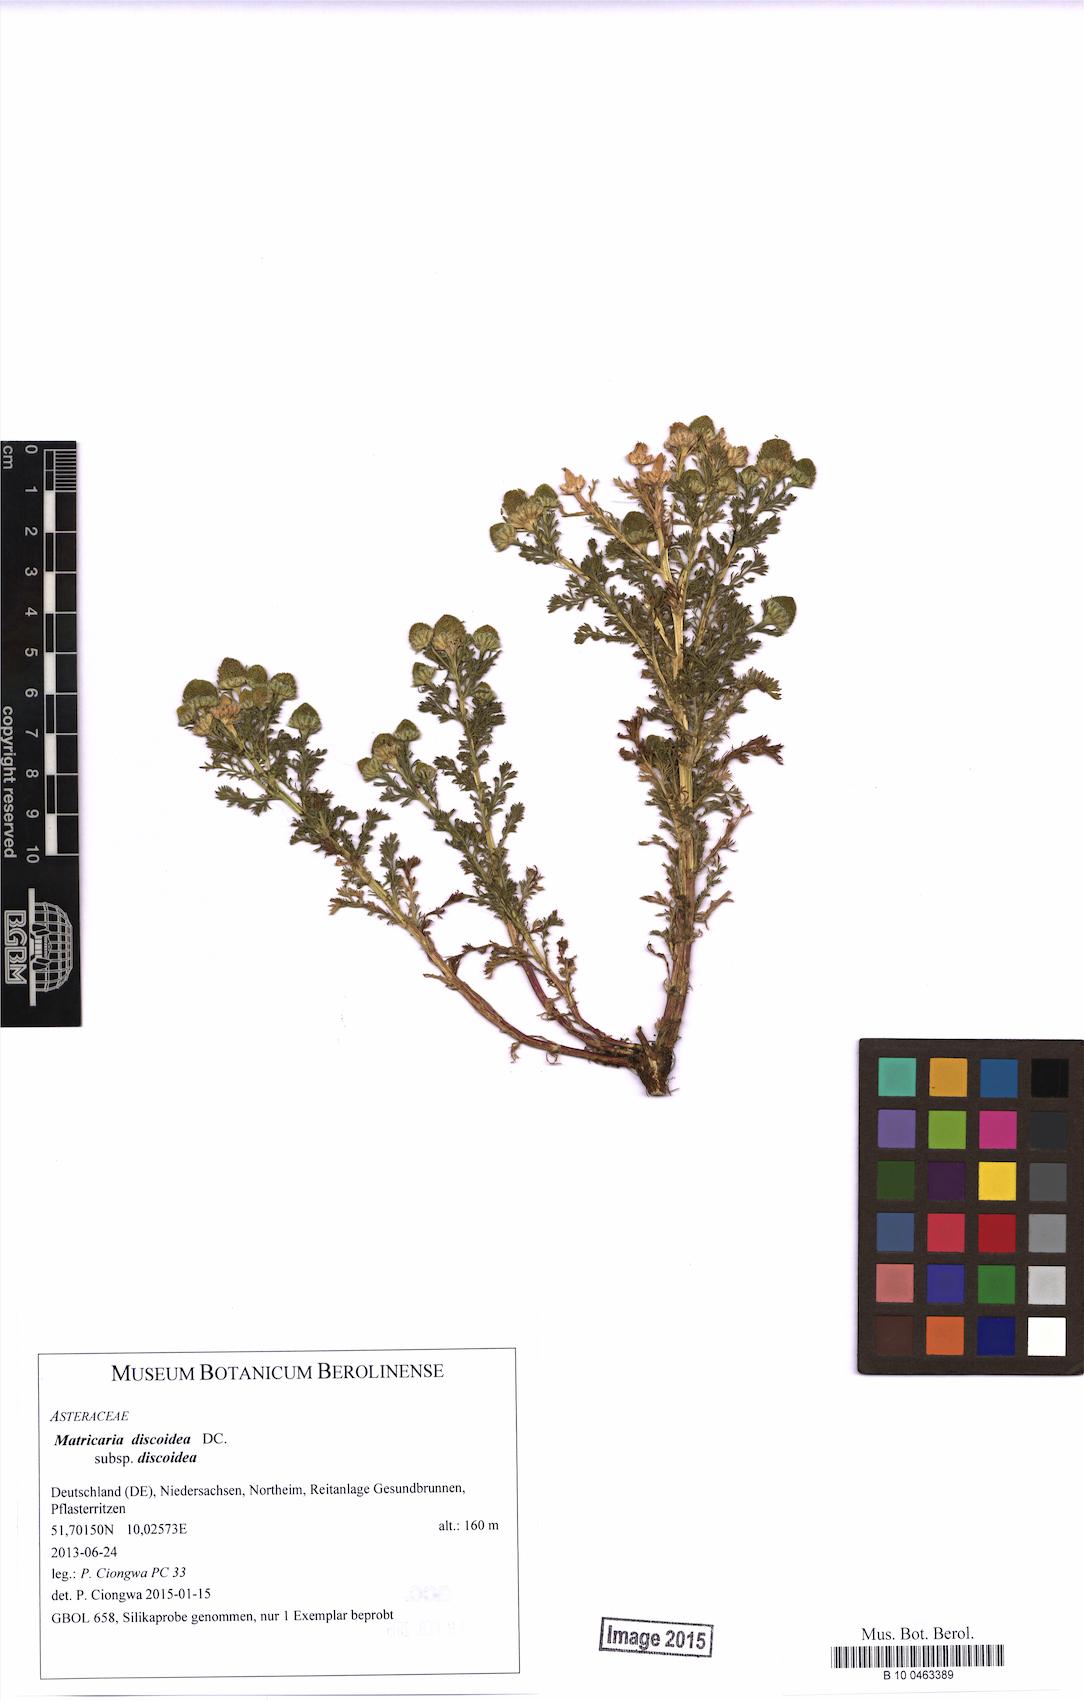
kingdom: Plantae
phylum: Tracheophyta
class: Magnoliopsida
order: Asterales
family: Asteraceae
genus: Matricaria
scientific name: Matricaria discoidea
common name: Disc mayweed
